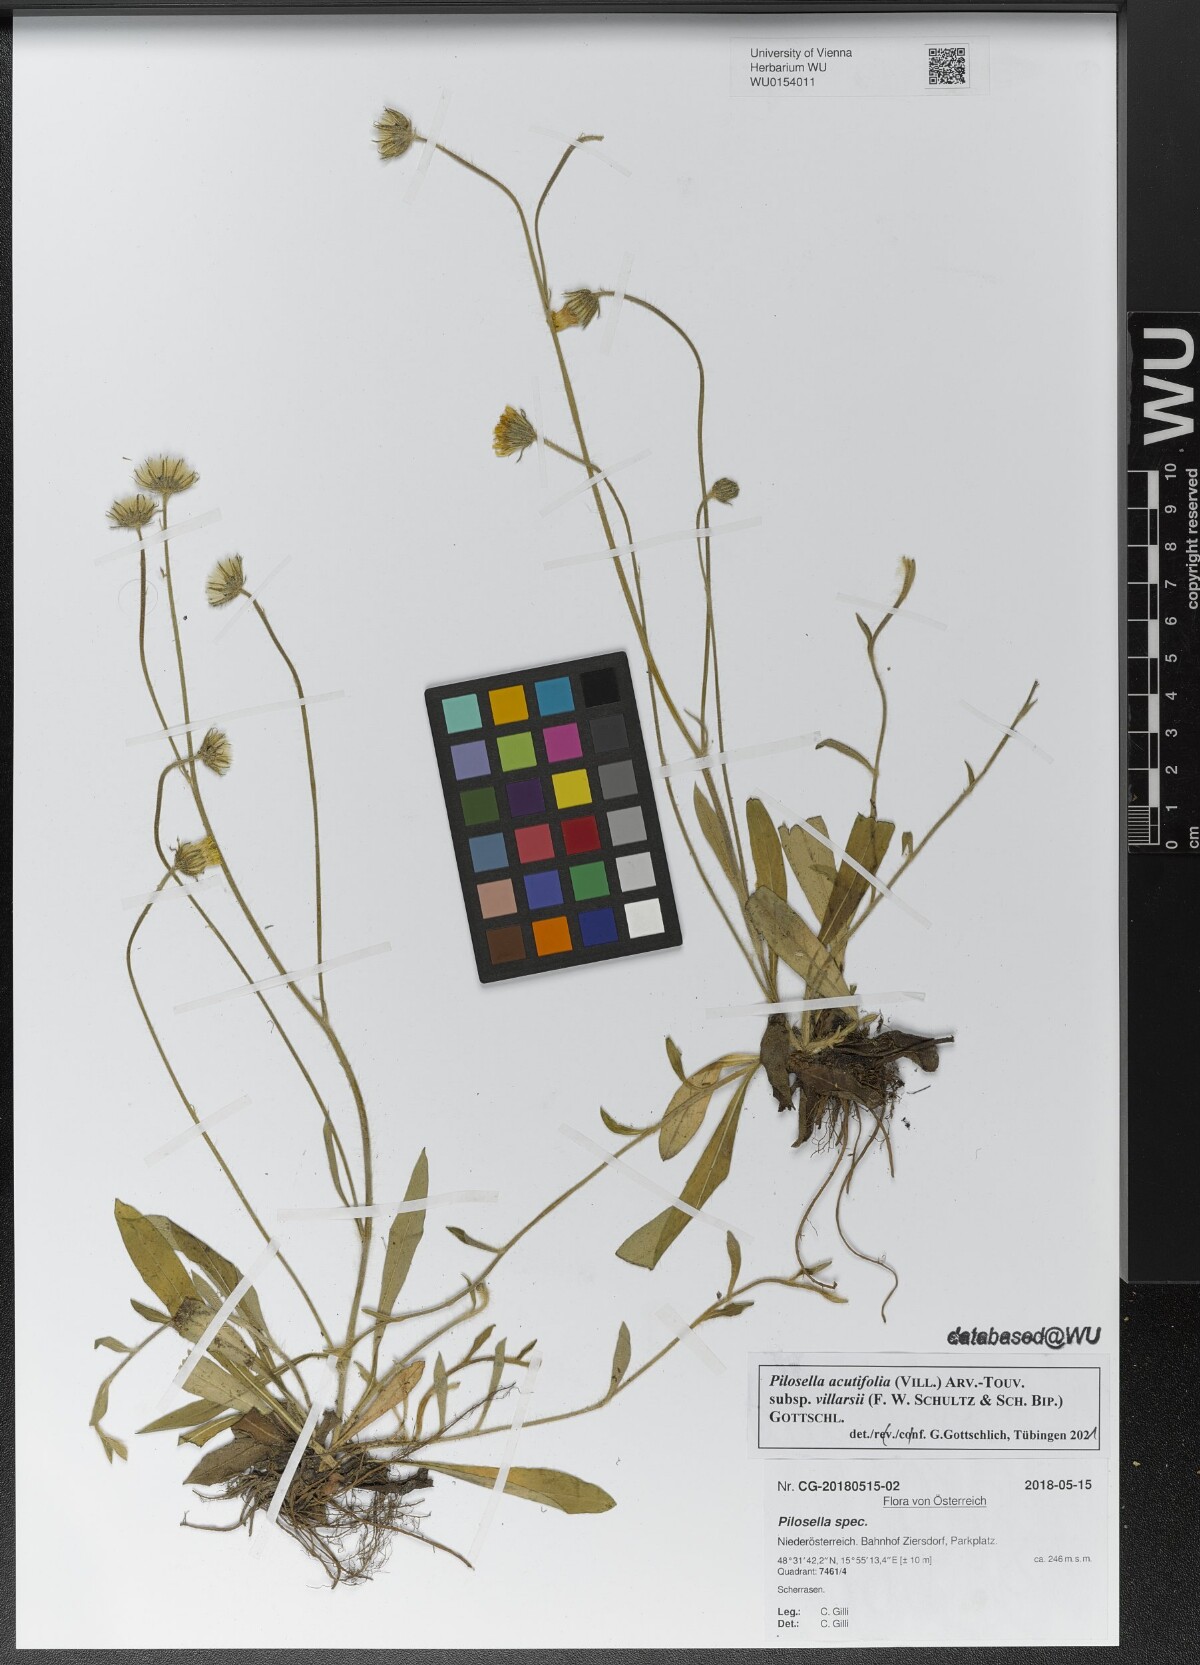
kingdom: Plantae
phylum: Tracheophyta
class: Magnoliopsida
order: Asterales
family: Asteraceae
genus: Pilosella
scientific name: Pilosella acutifolia
